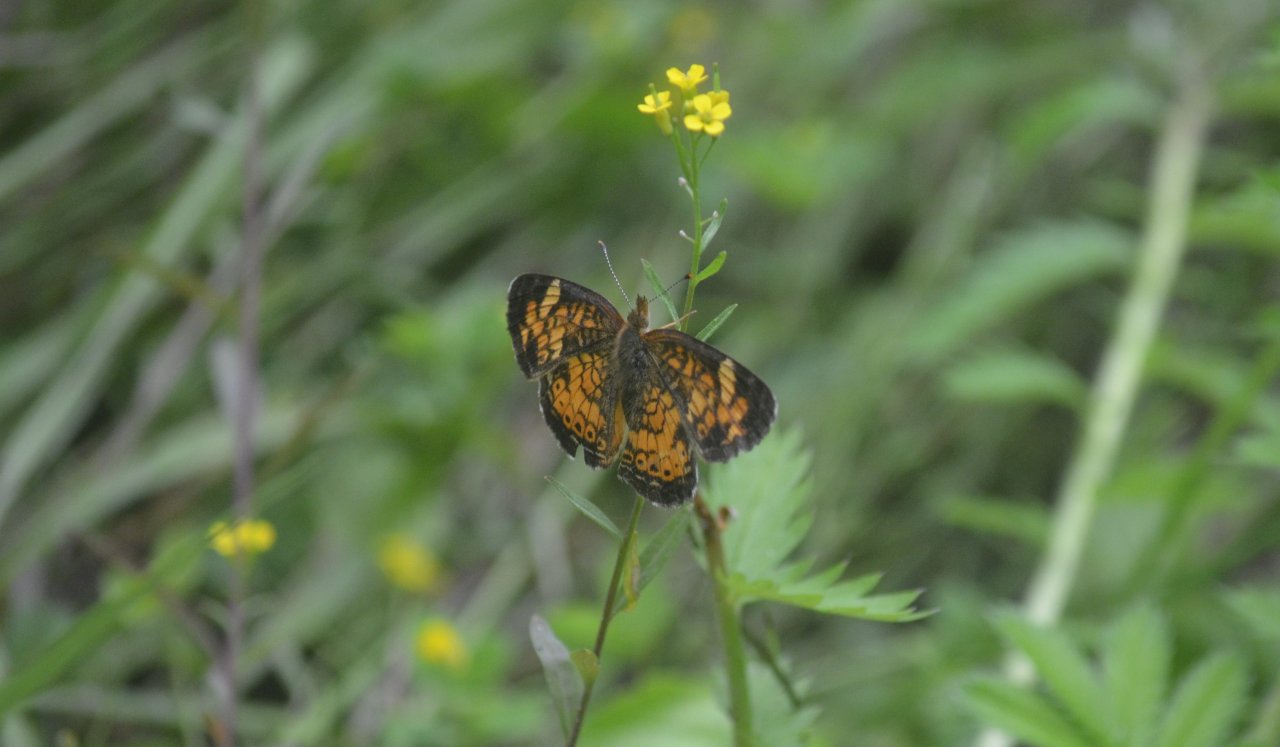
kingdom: Animalia
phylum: Arthropoda
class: Insecta
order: Lepidoptera
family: Nymphalidae
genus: Phyciodes
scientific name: Phyciodes tharos
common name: Northern Crescent
